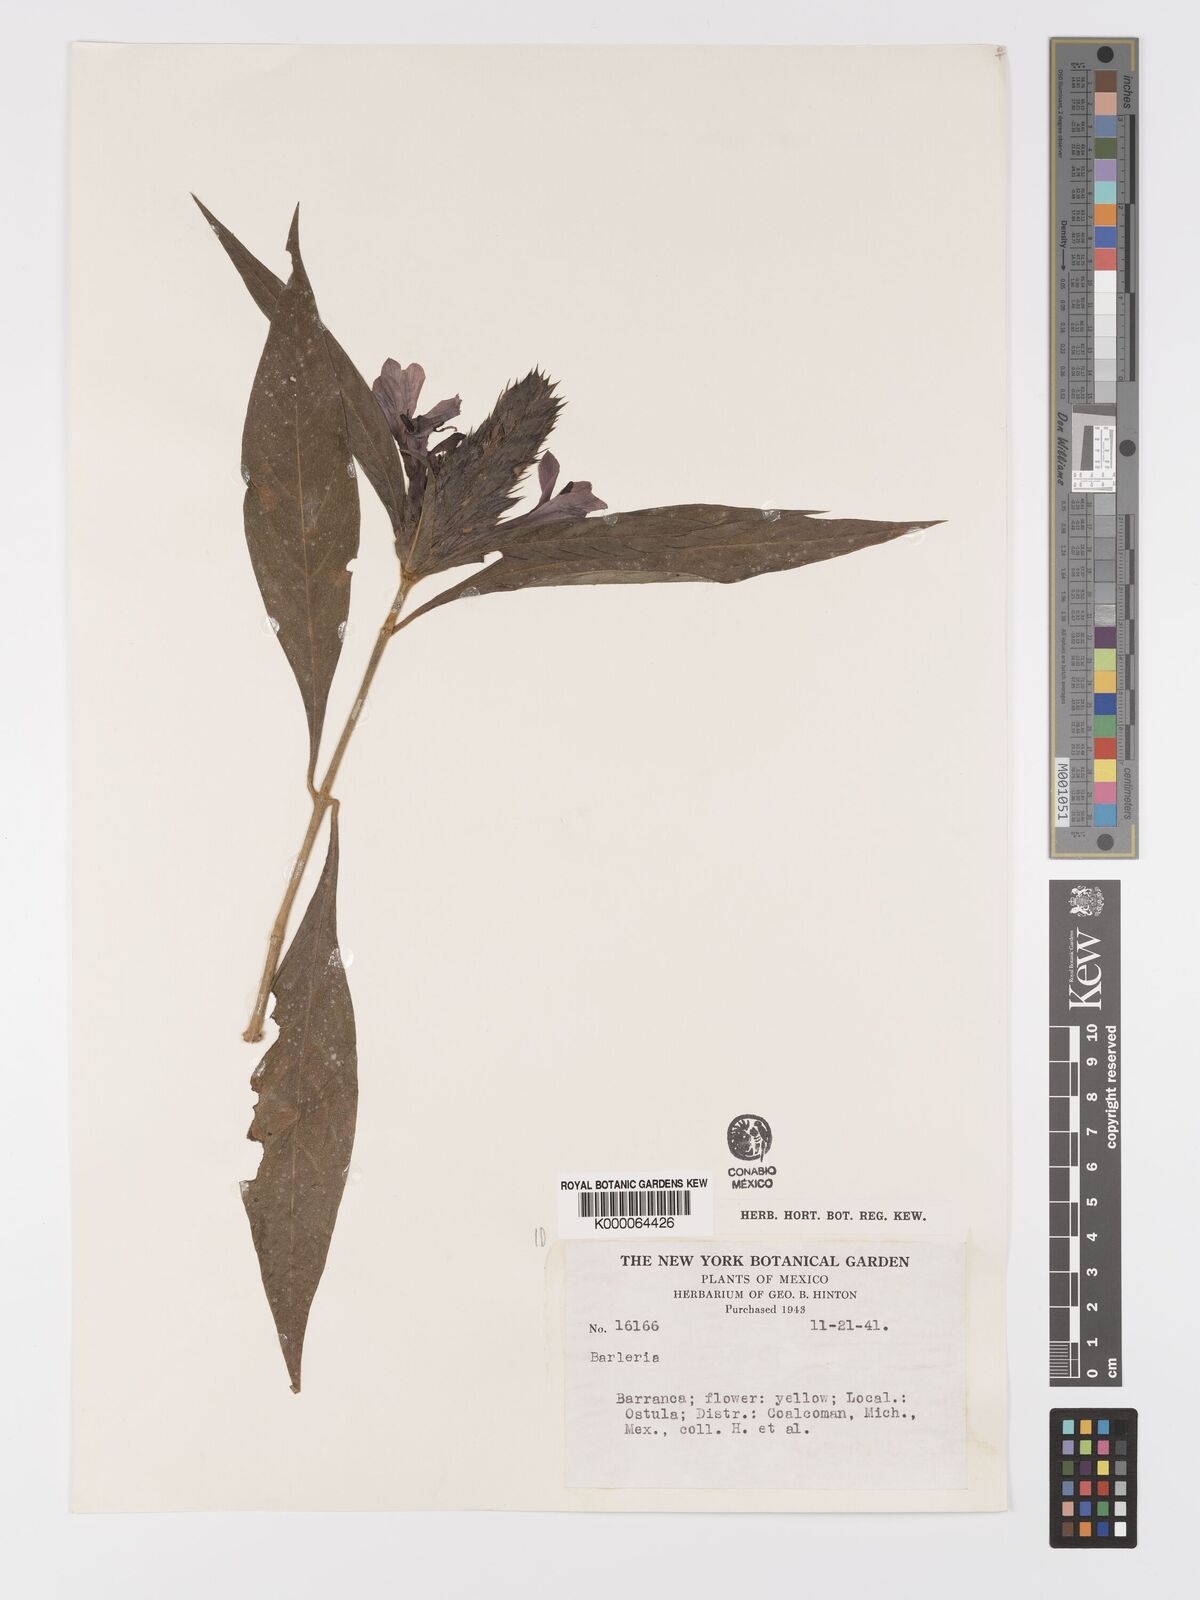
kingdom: Plantae
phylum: Tracheophyta
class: Magnoliopsida
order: Lamiales
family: Acanthaceae
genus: Barleria
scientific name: Barleria oenotheroides
